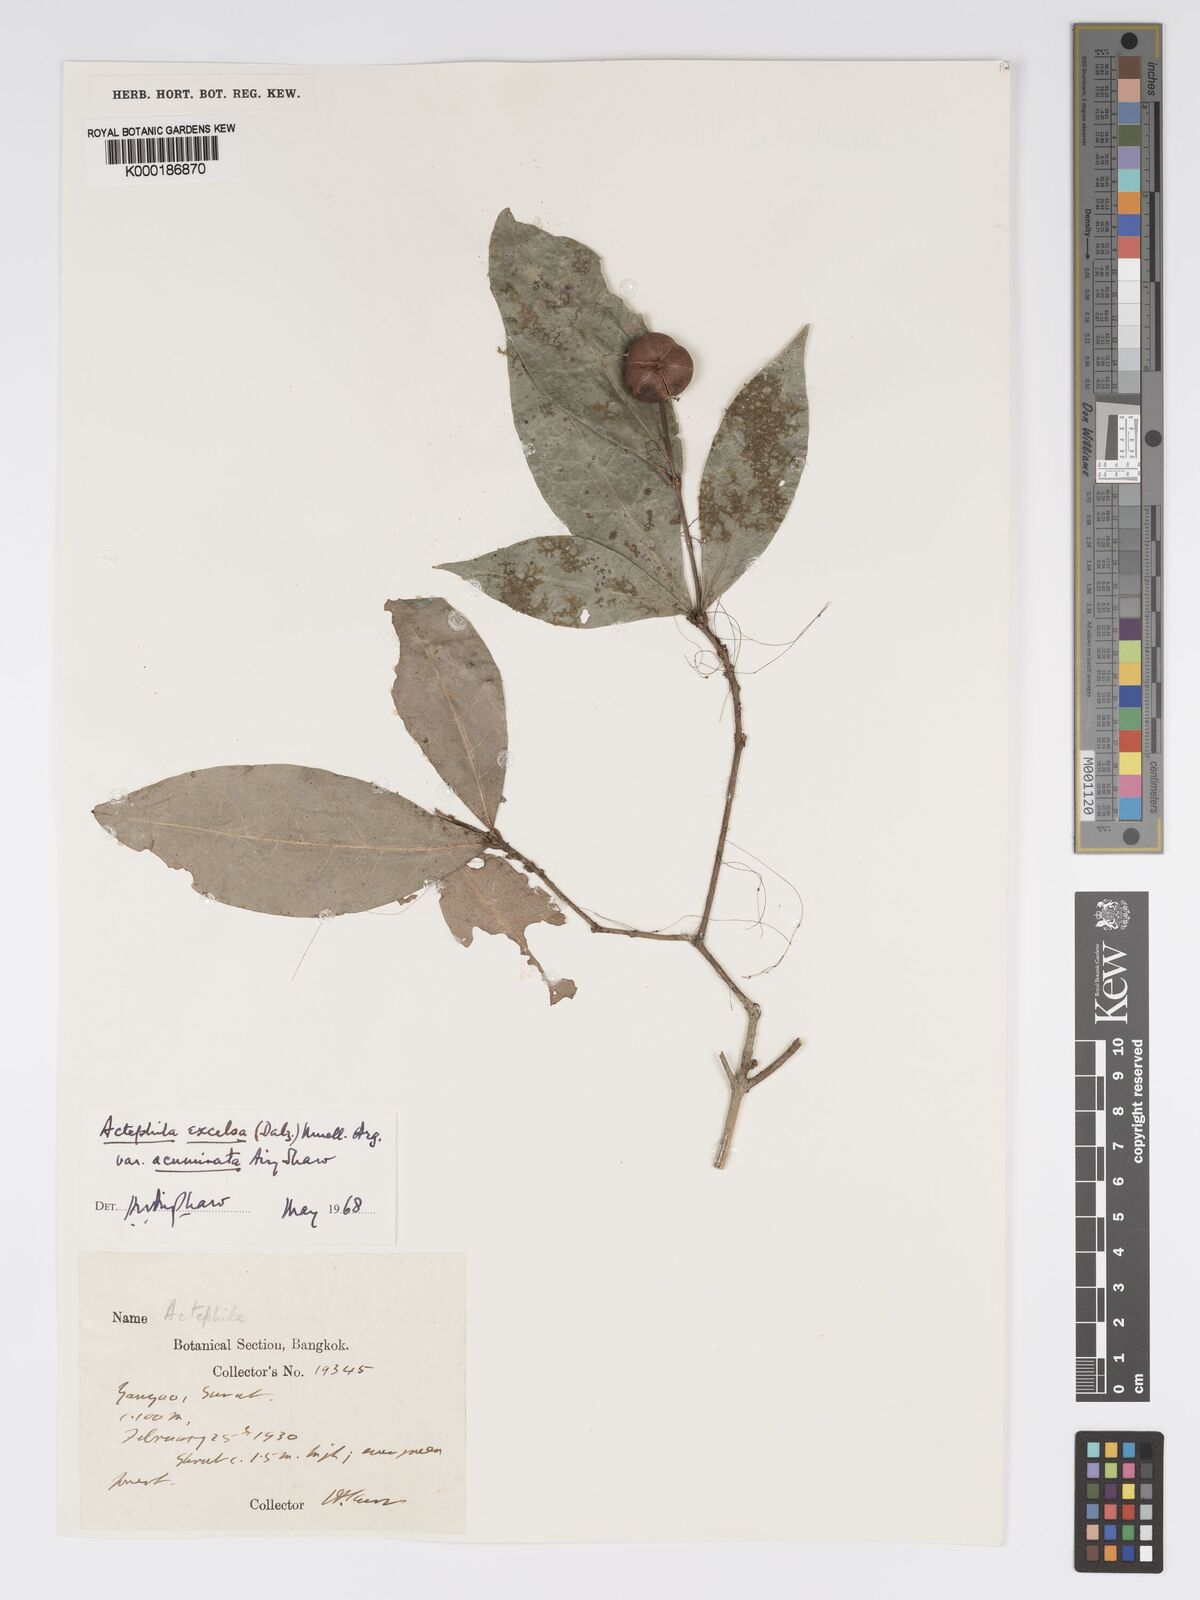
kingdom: Plantae
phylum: Tracheophyta
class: Magnoliopsida
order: Malpighiales
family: Phyllanthaceae
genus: Actephila
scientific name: Actephila subsessilis
